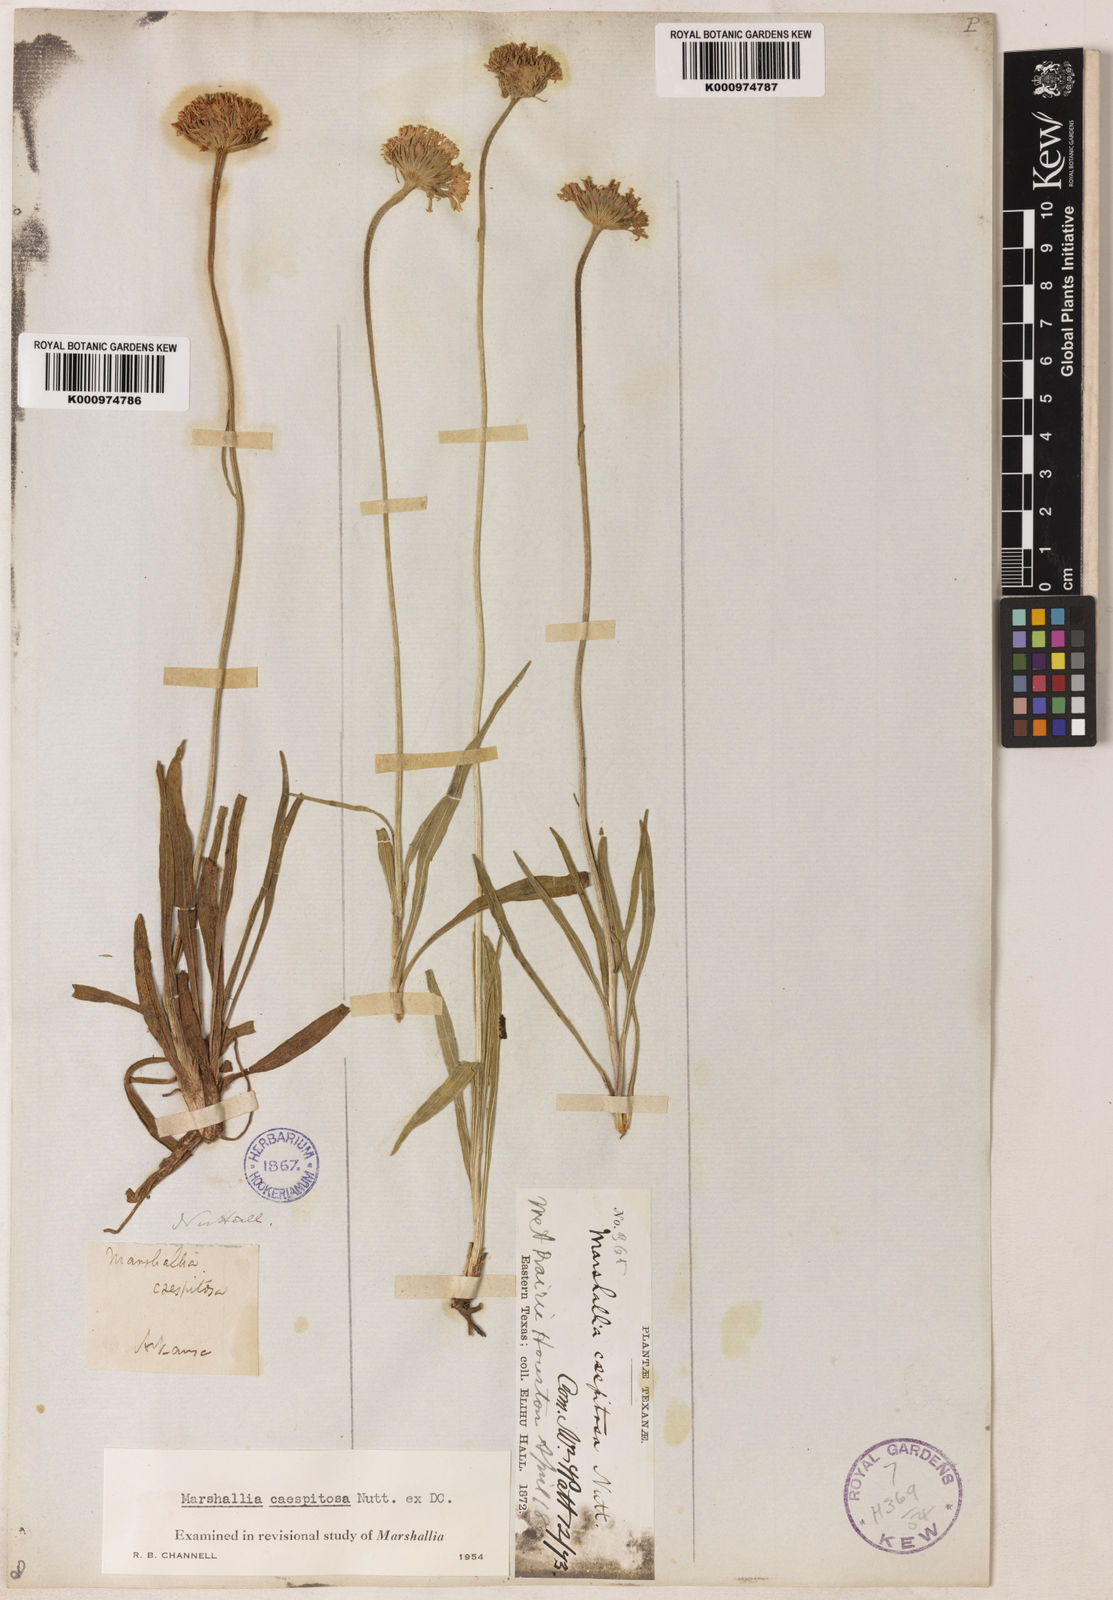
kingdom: Plantae
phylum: Tracheophyta
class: Magnoliopsida
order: Asterales
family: Asteraceae
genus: Marshallia
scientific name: Marshallia caespitosa
